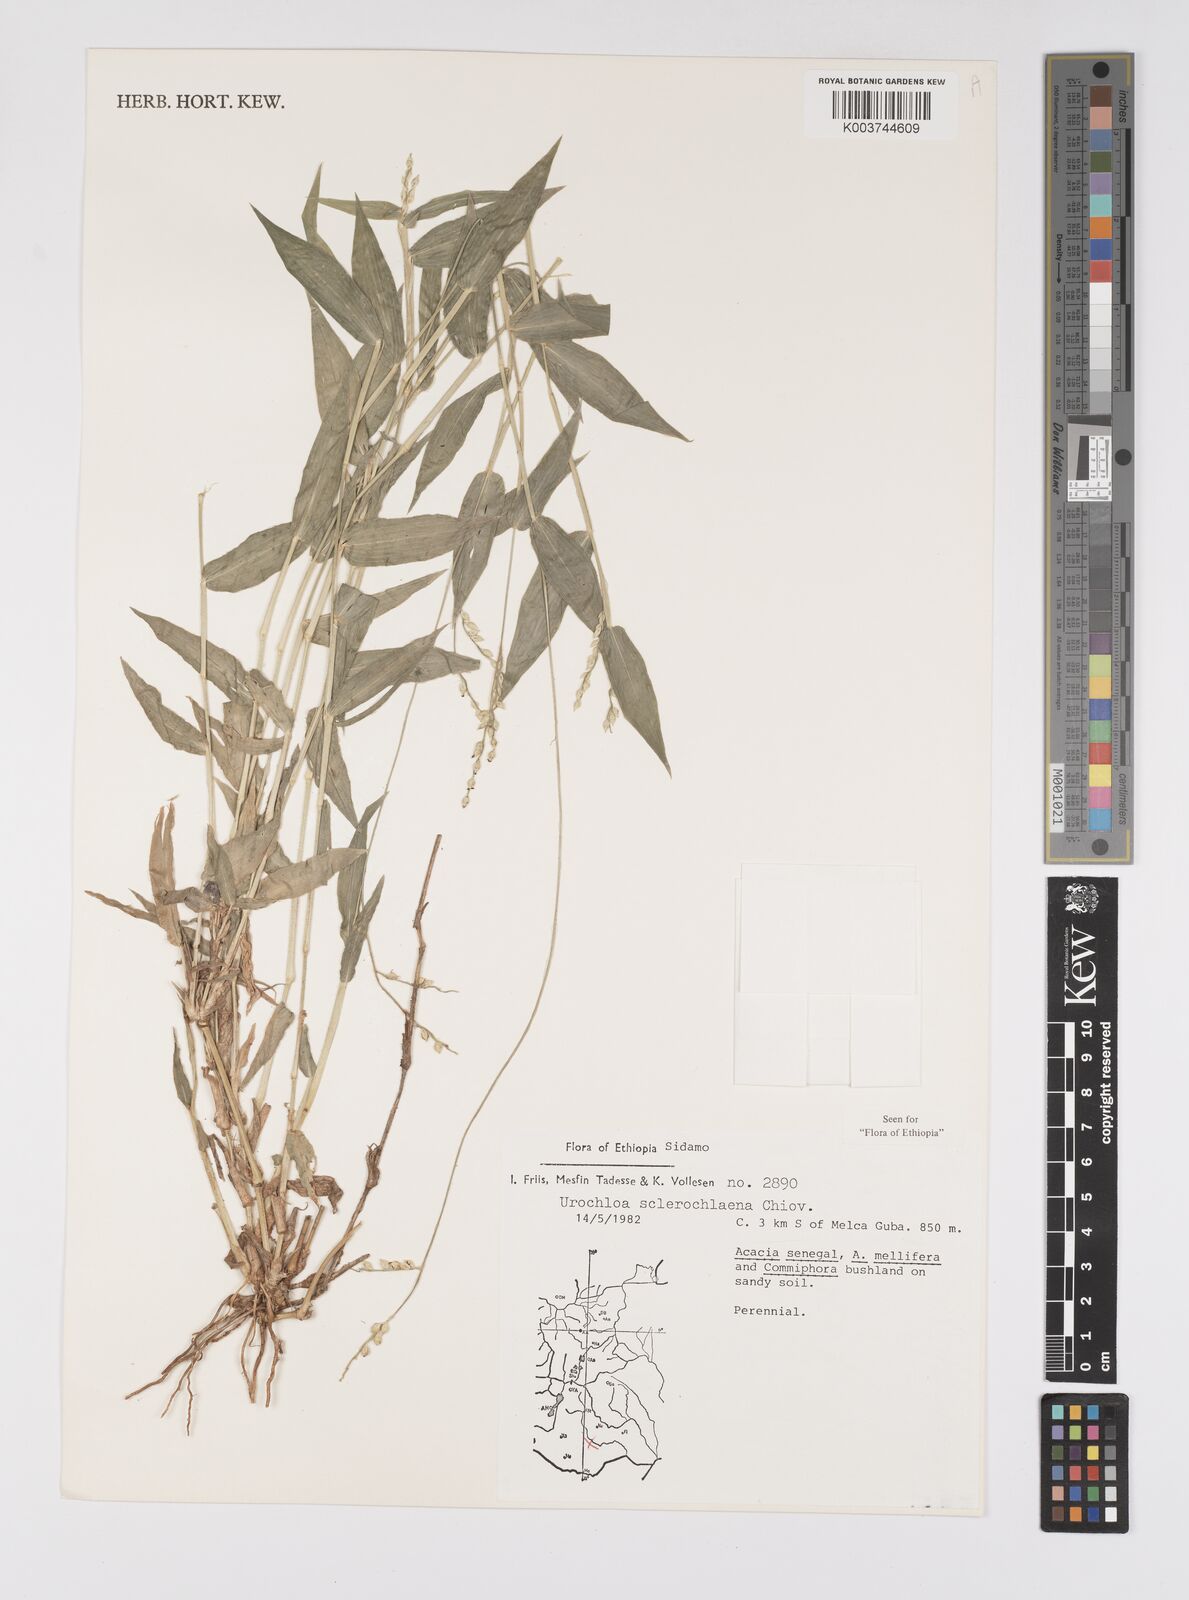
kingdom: Plantae
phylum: Tracheophyta
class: Liliopsida
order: Poales
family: Poaceae
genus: Urochloa
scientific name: Urochloa sclerochlaena
